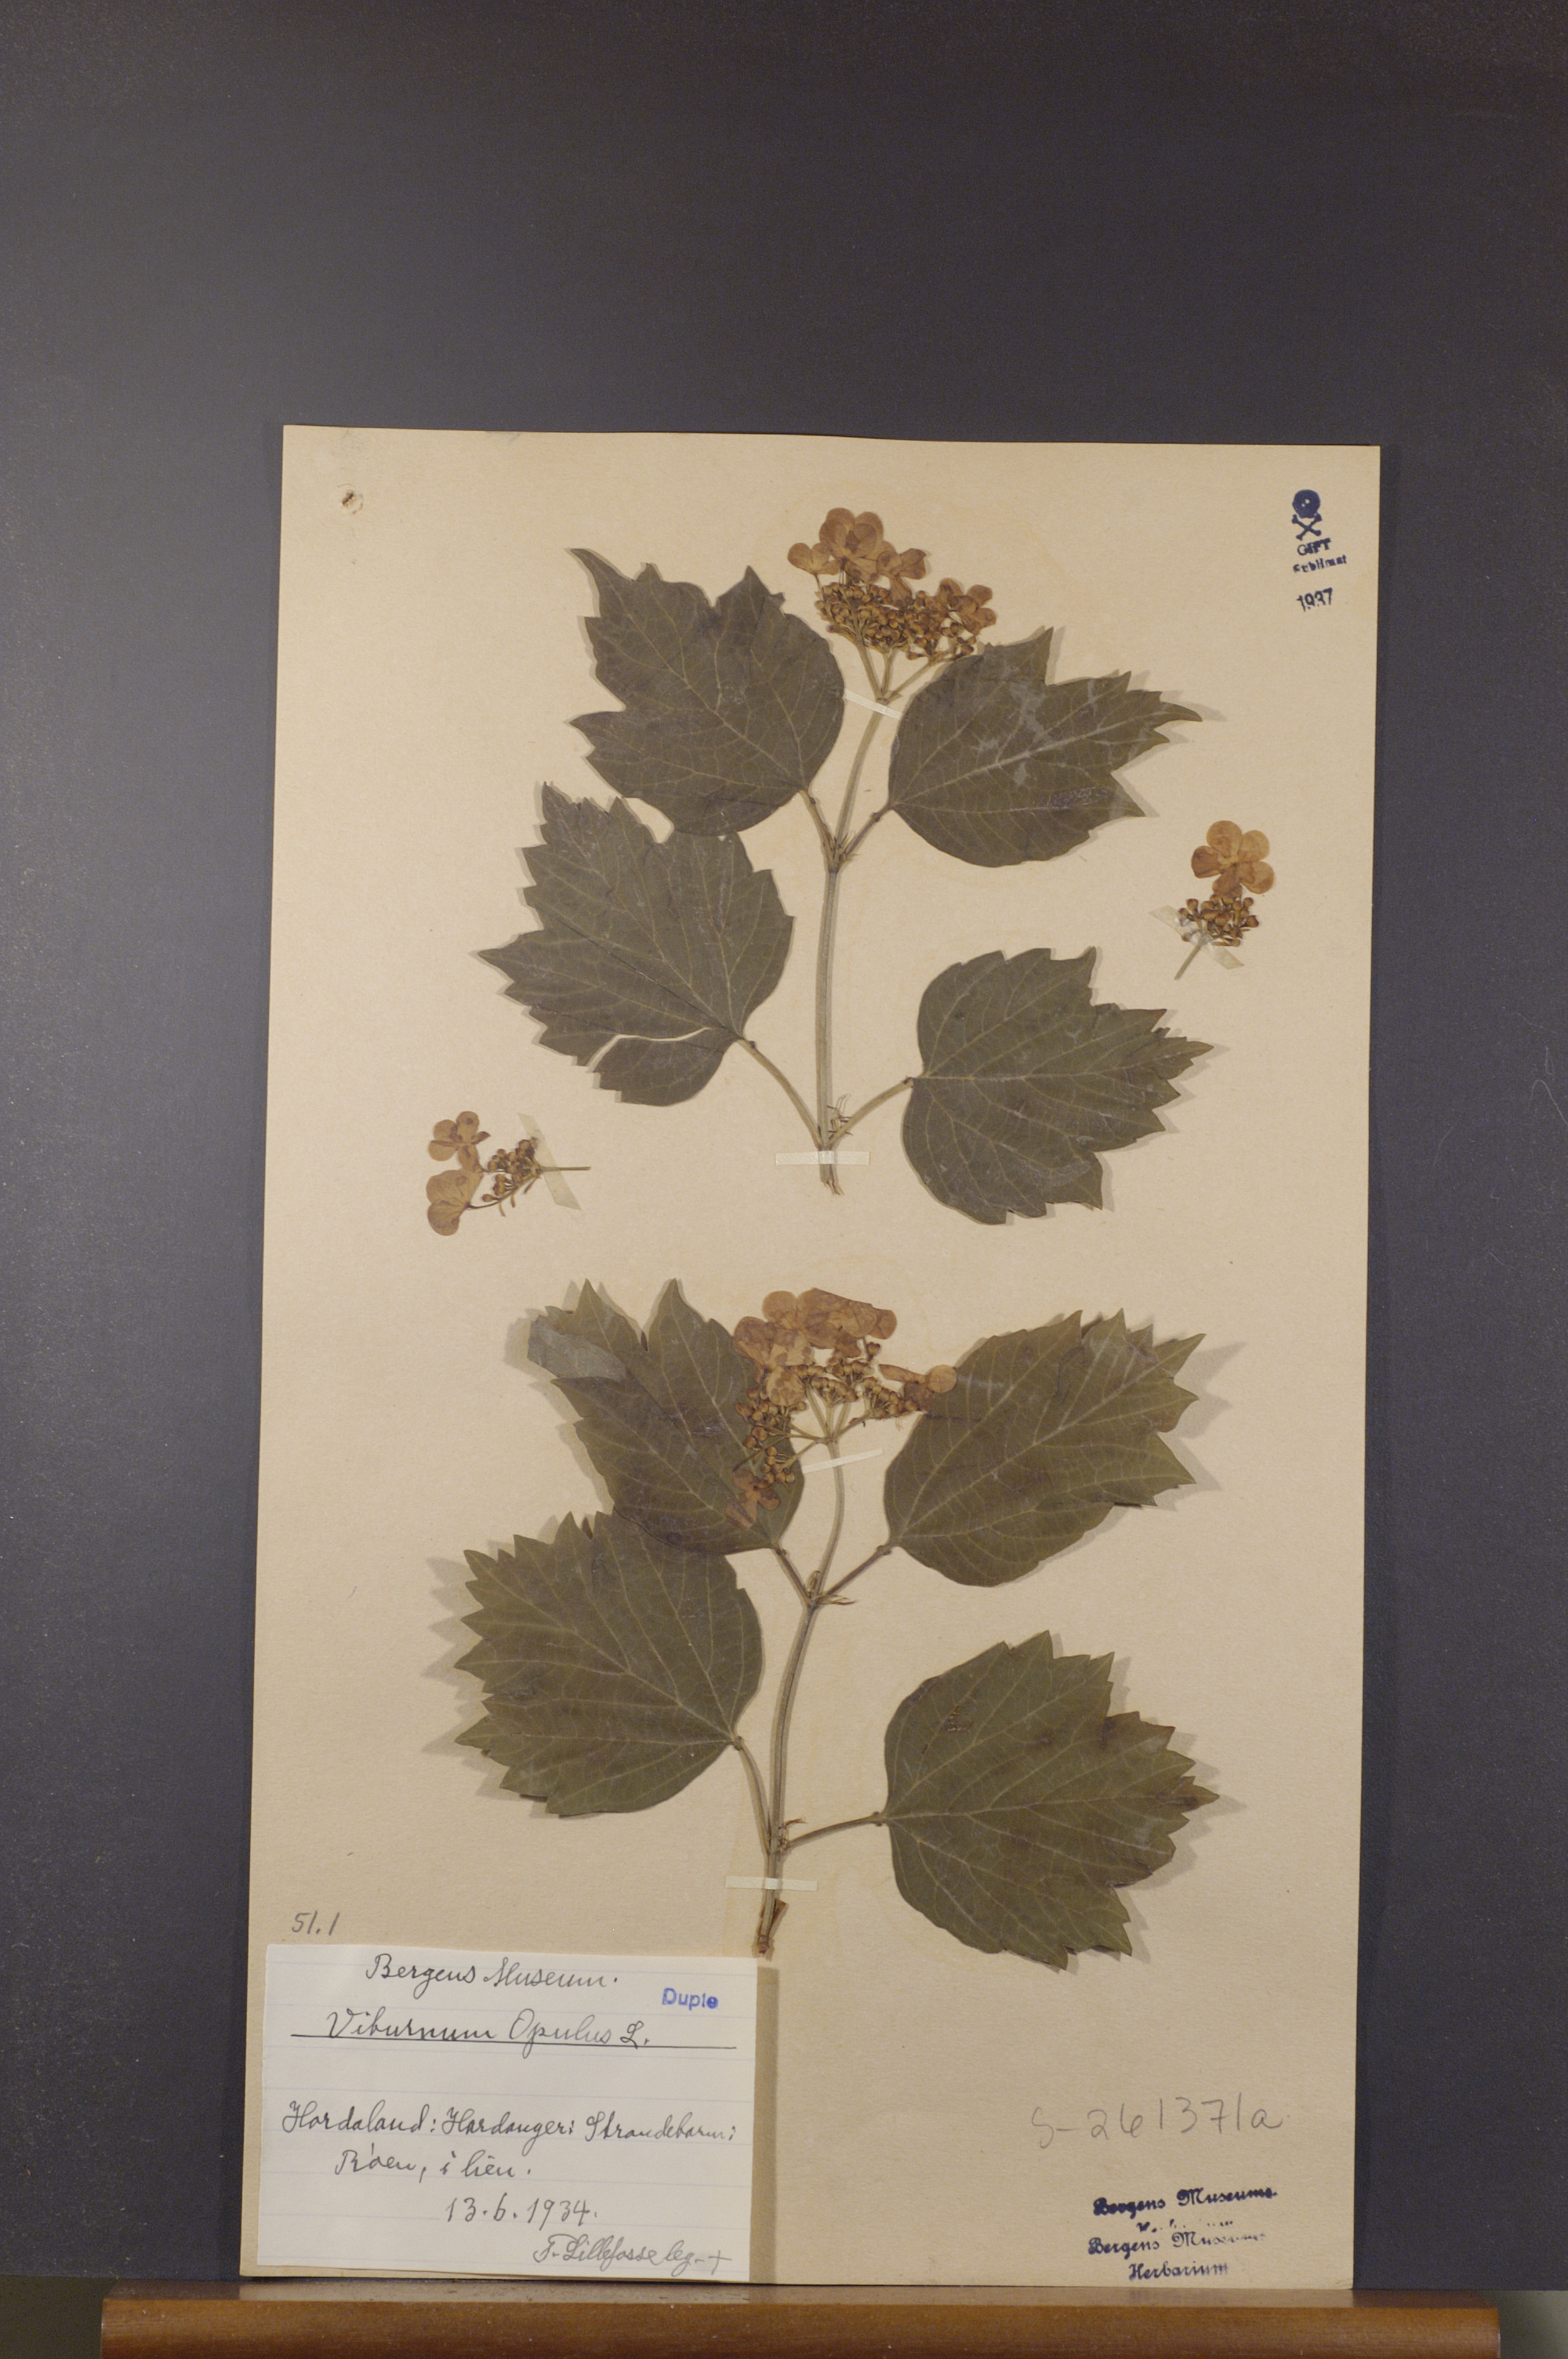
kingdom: Plantae
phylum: Tracheophyta
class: Magnoliopsida
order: Dipsacales
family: Viburnaceae
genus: Viburnum
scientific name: Viburnum opulus
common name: Guelder-rose
